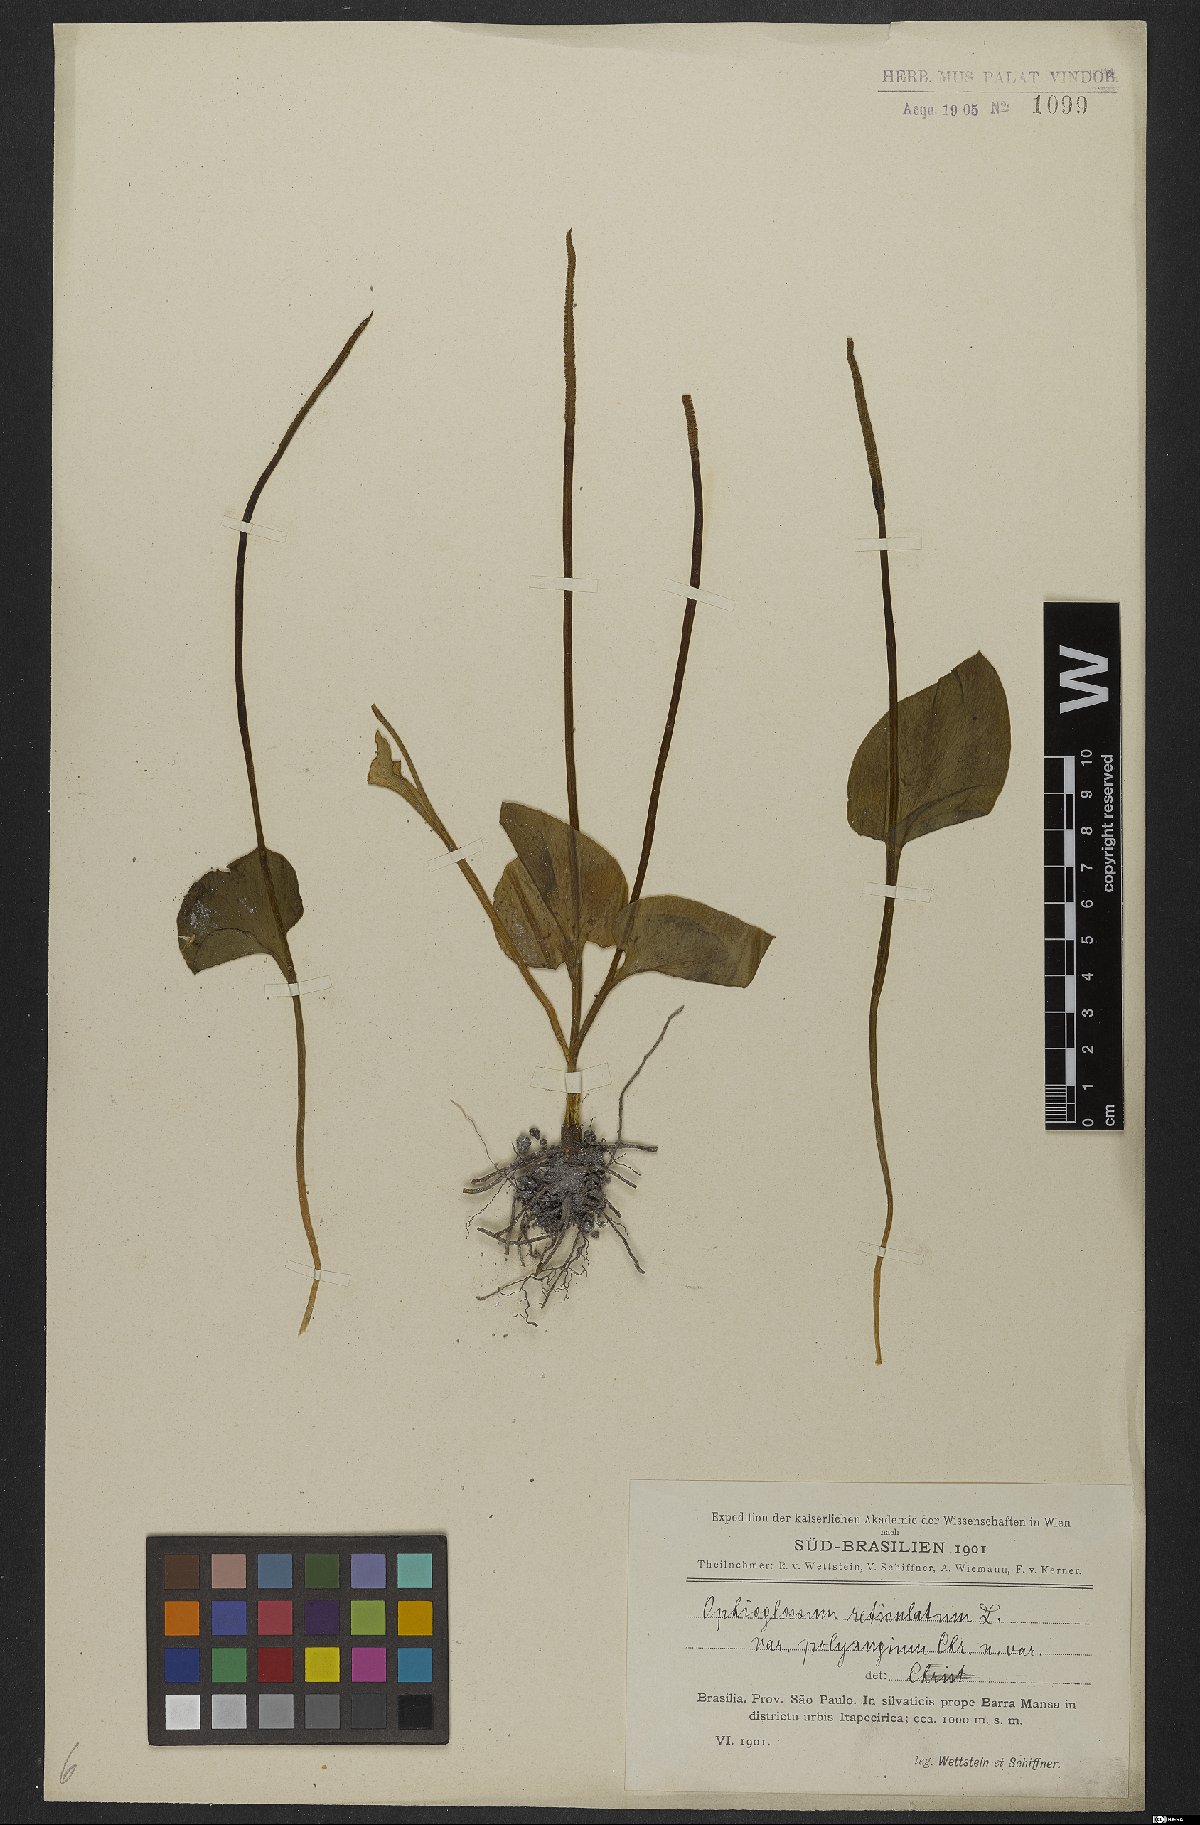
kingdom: Plantae
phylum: Tracheophyta
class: Polypodiopsida
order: Ophioglossales
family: Ophioglossaceae
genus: Ophioglossum
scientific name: Ophioglossum reticulatum
